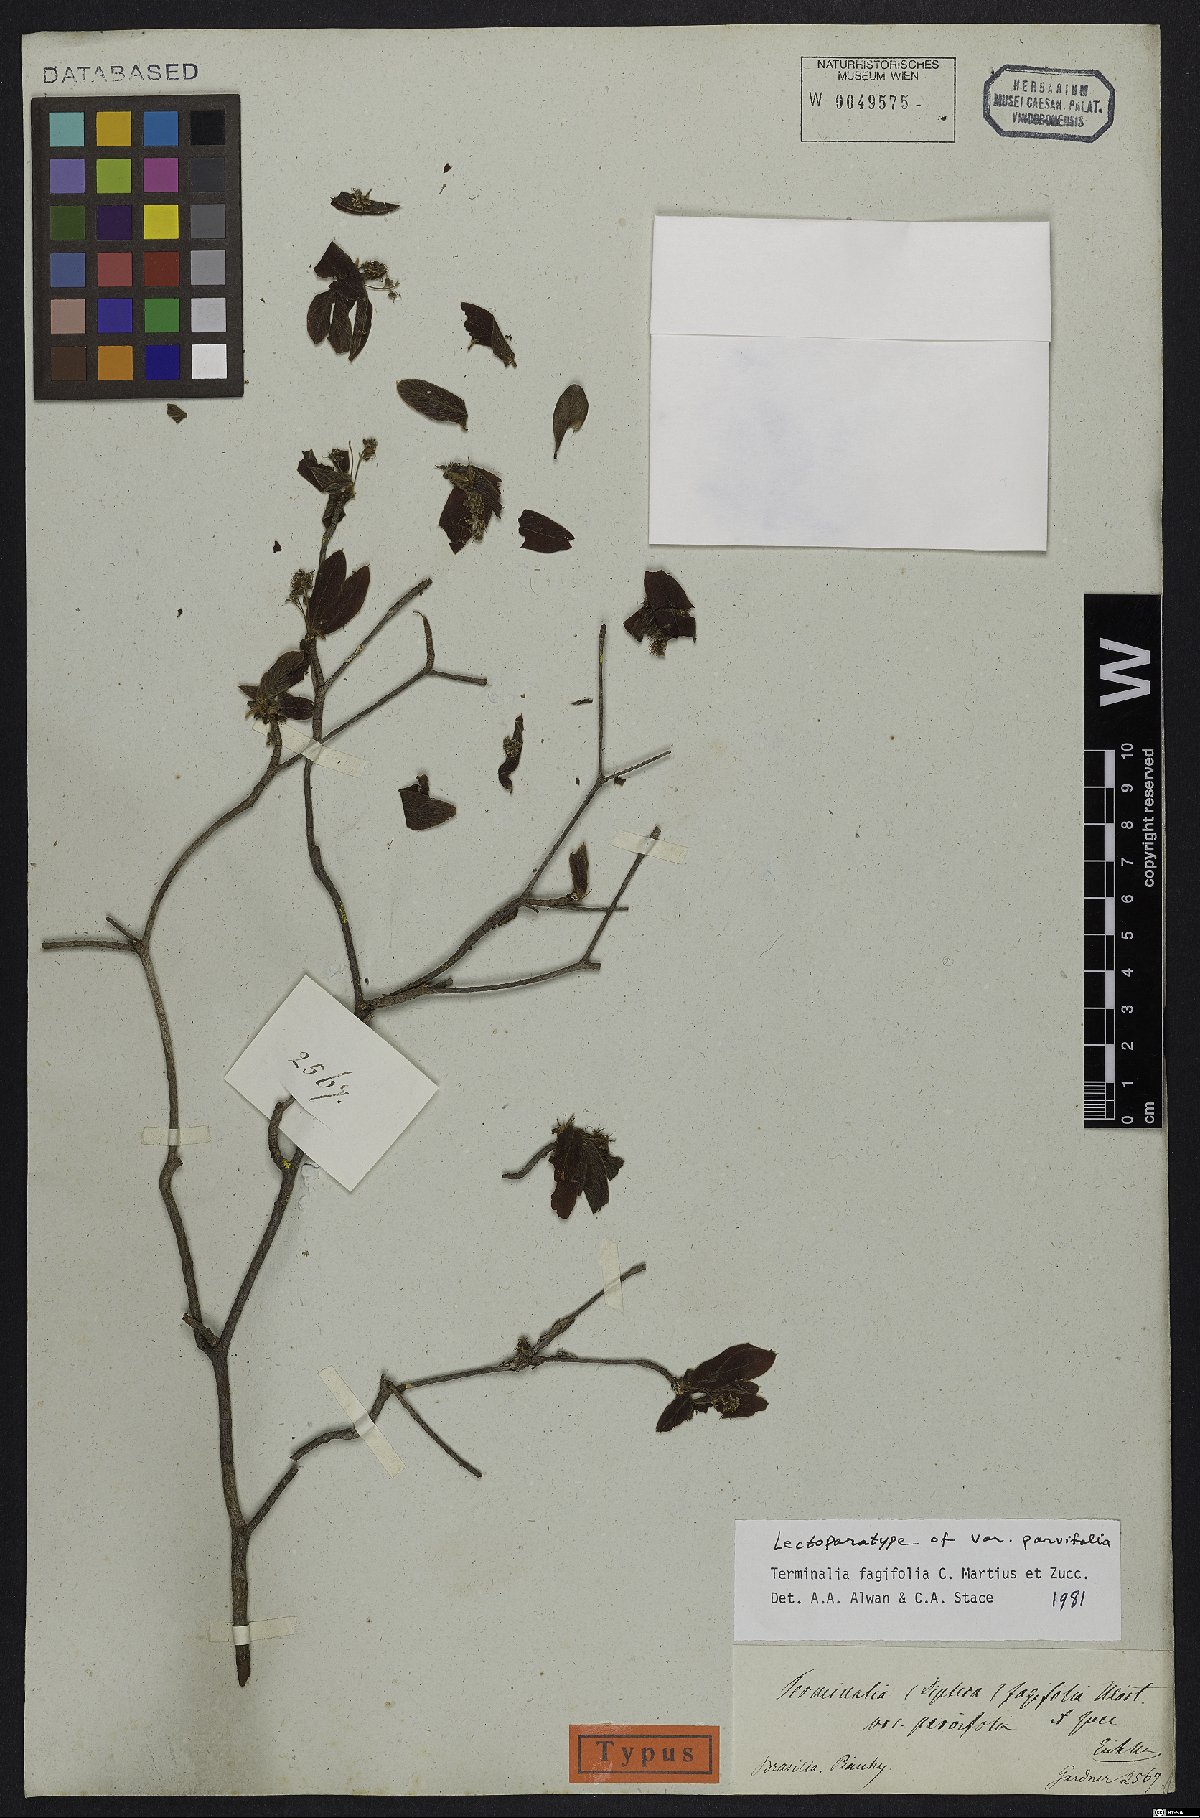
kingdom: Plantae
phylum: Tracheophyta
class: Magnoliopsida
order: Myrtales
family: Combretaceae
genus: Terminalia
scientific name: Terminalia fagifolia
